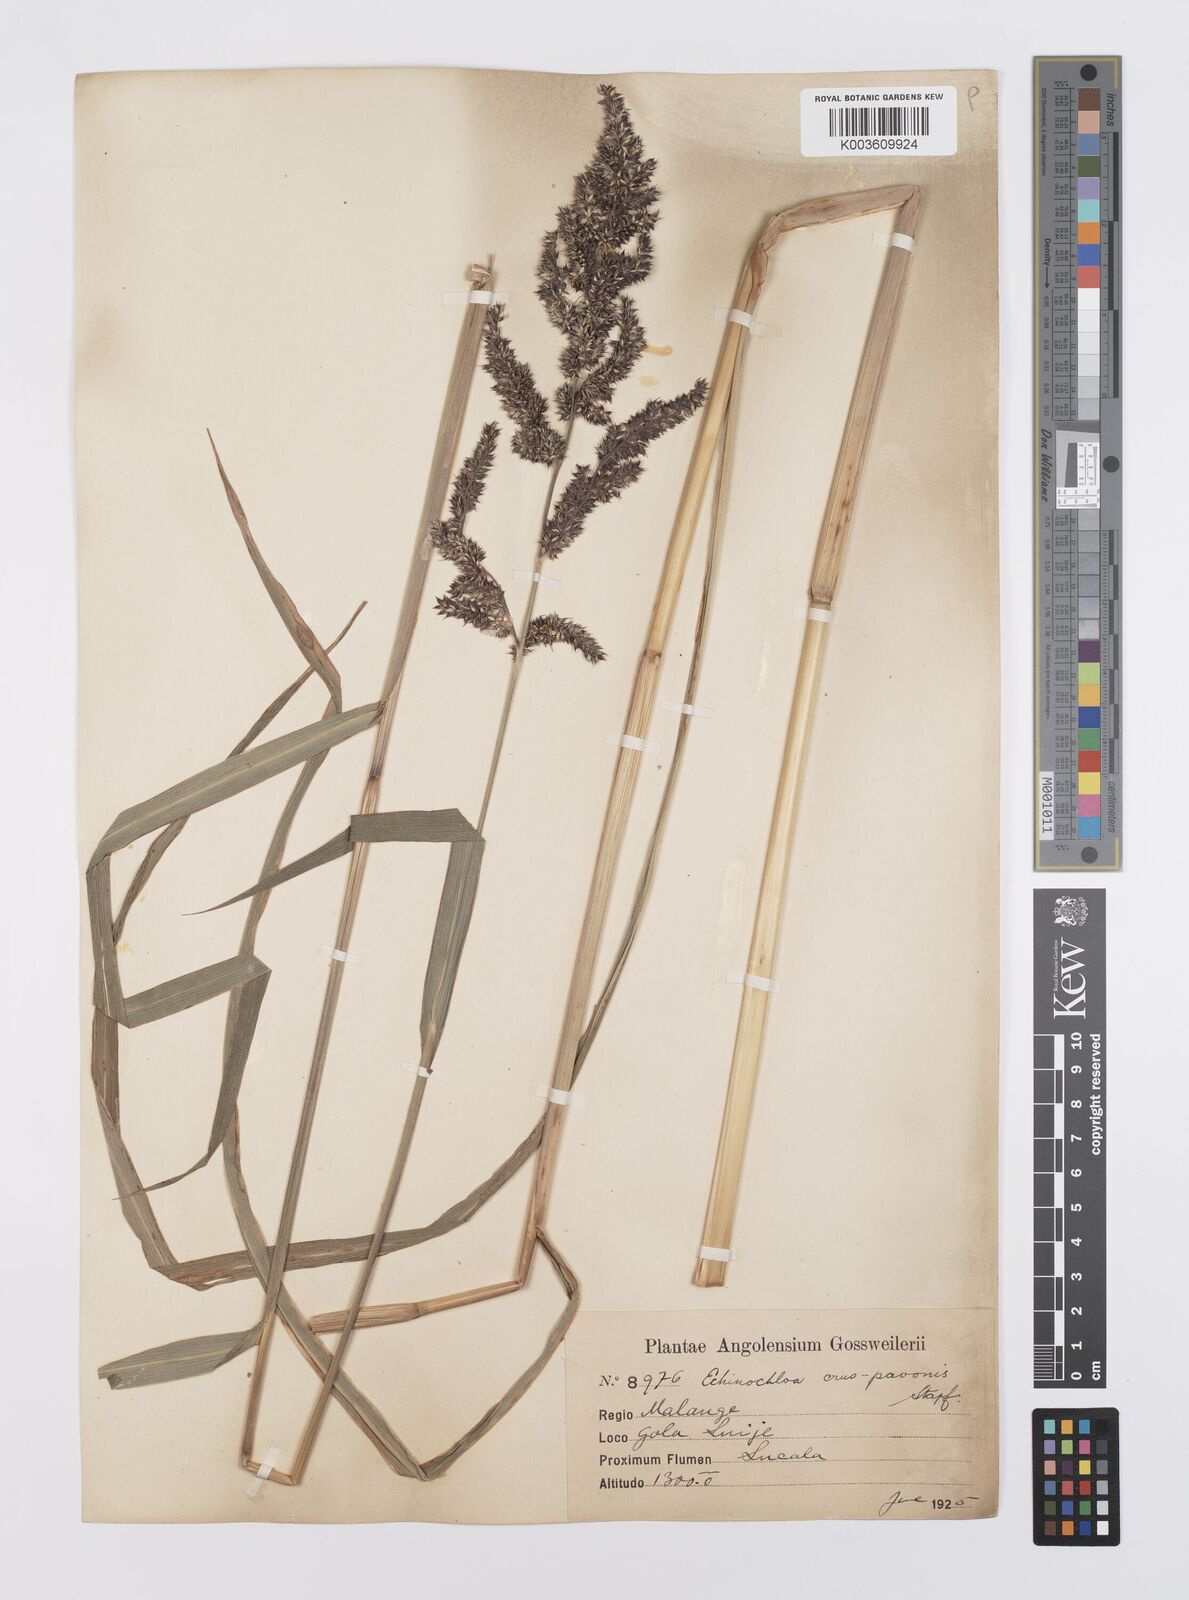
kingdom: Plantae
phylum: Tracheophyta
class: Liliopsida
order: Poales
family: Poaceae
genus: Echinochloa
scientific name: Echinochloa crus-pavonis
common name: Gulf cockspur grass
